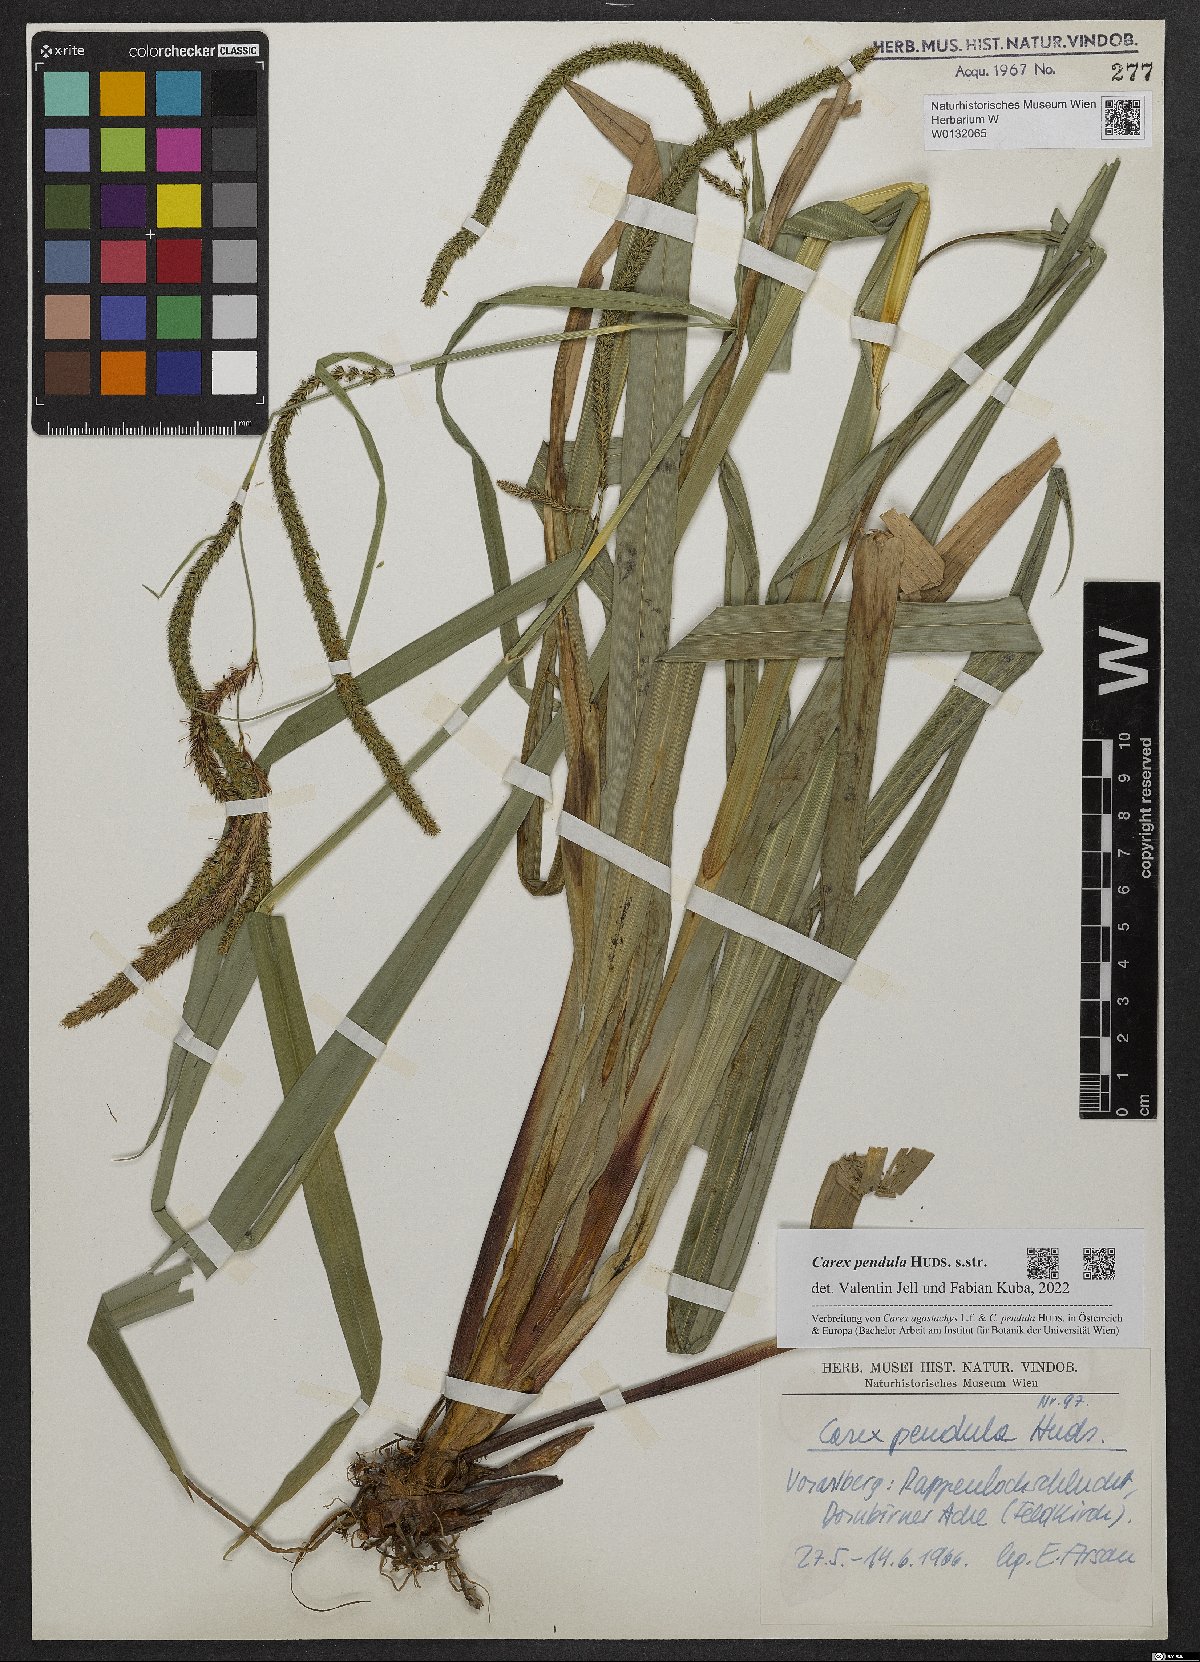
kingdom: Plantae
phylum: Tracheophyta
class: Liliopsida
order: Poales
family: Cyperaceae
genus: Carex
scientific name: Carex pendula
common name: Pendulous sedge
